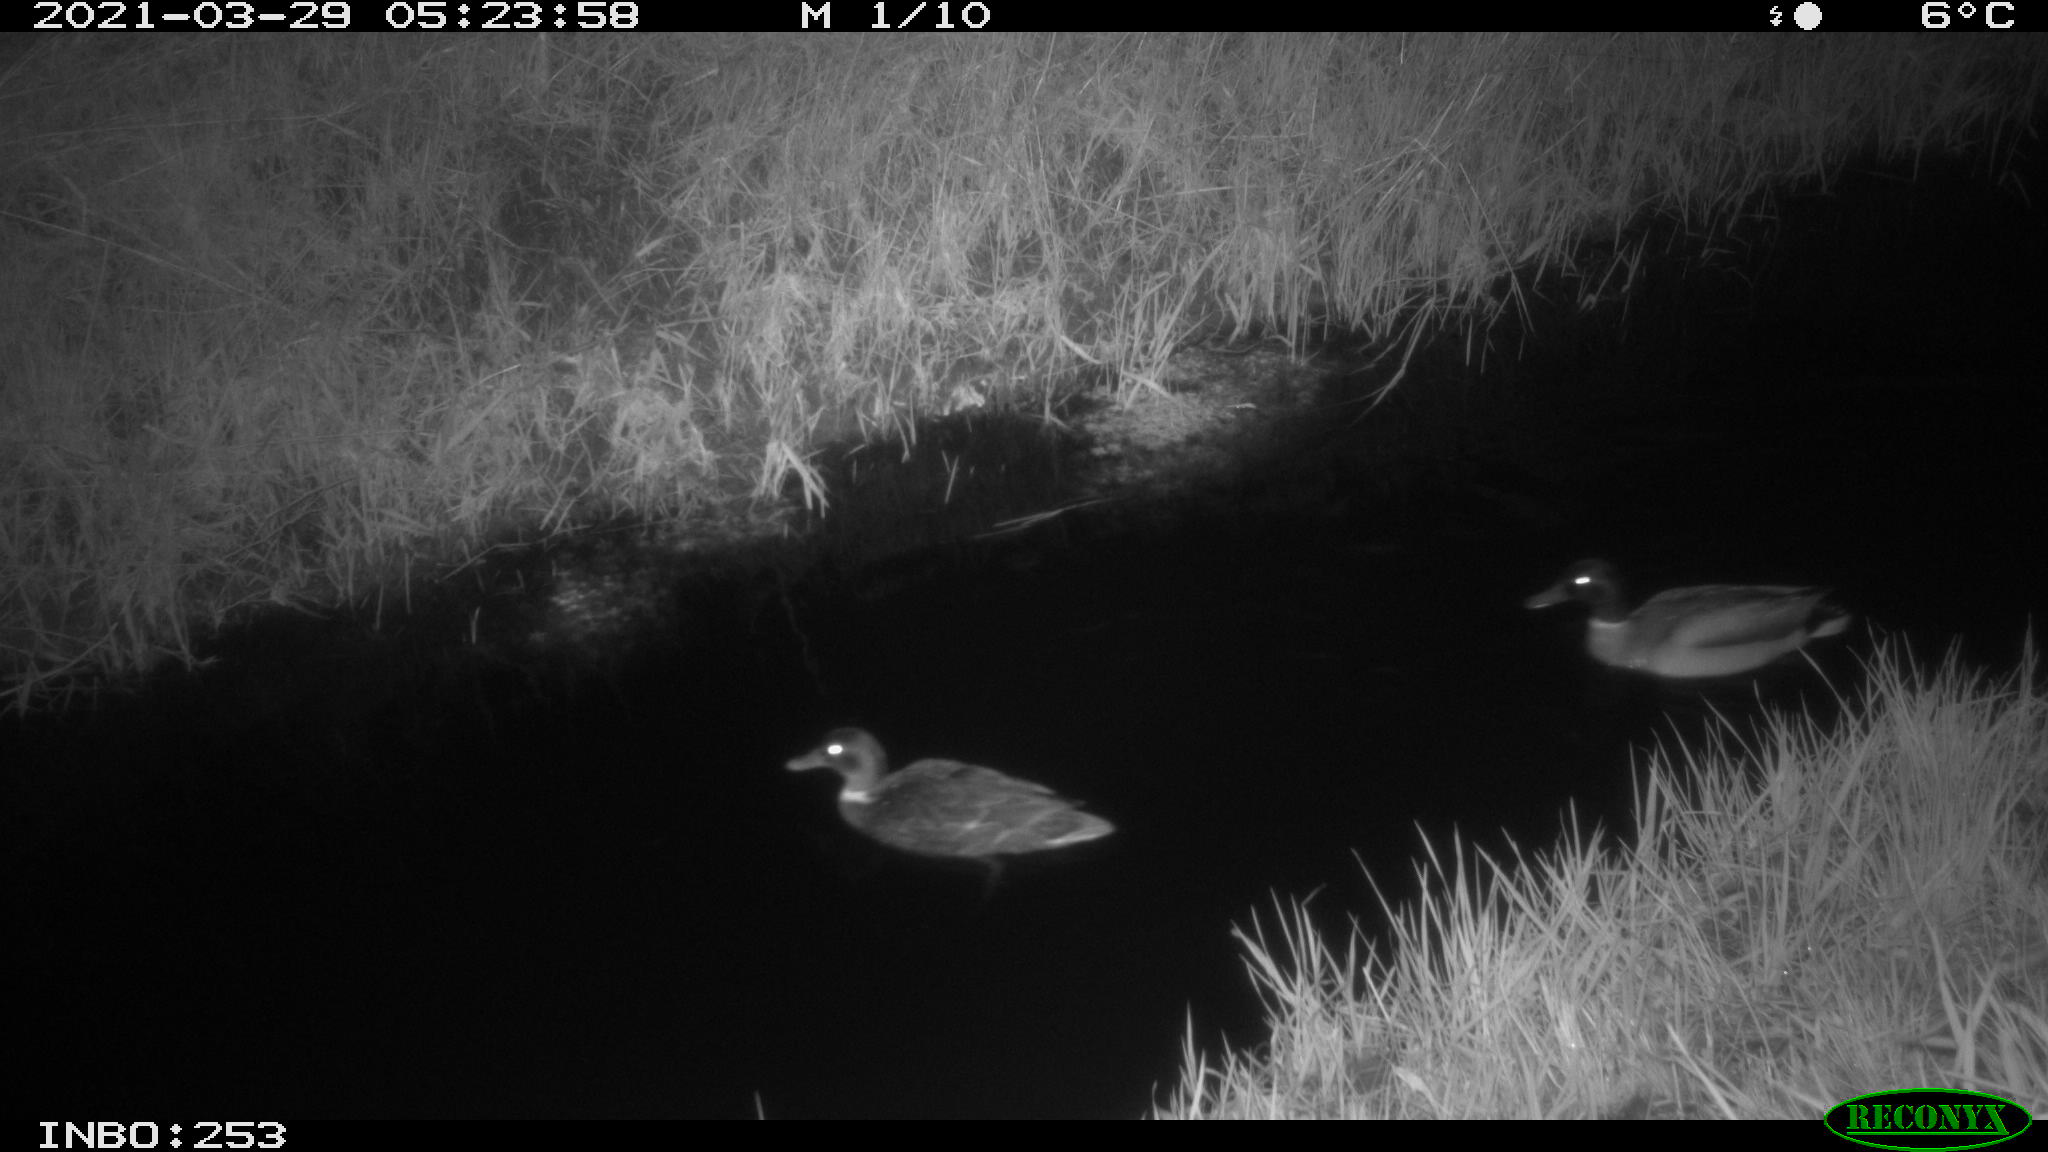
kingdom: Animalia
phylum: Chordata
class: Aves
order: Anseriformes
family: Anatidae
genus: Anas
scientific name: Anas platyrhynchos
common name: Mallard
